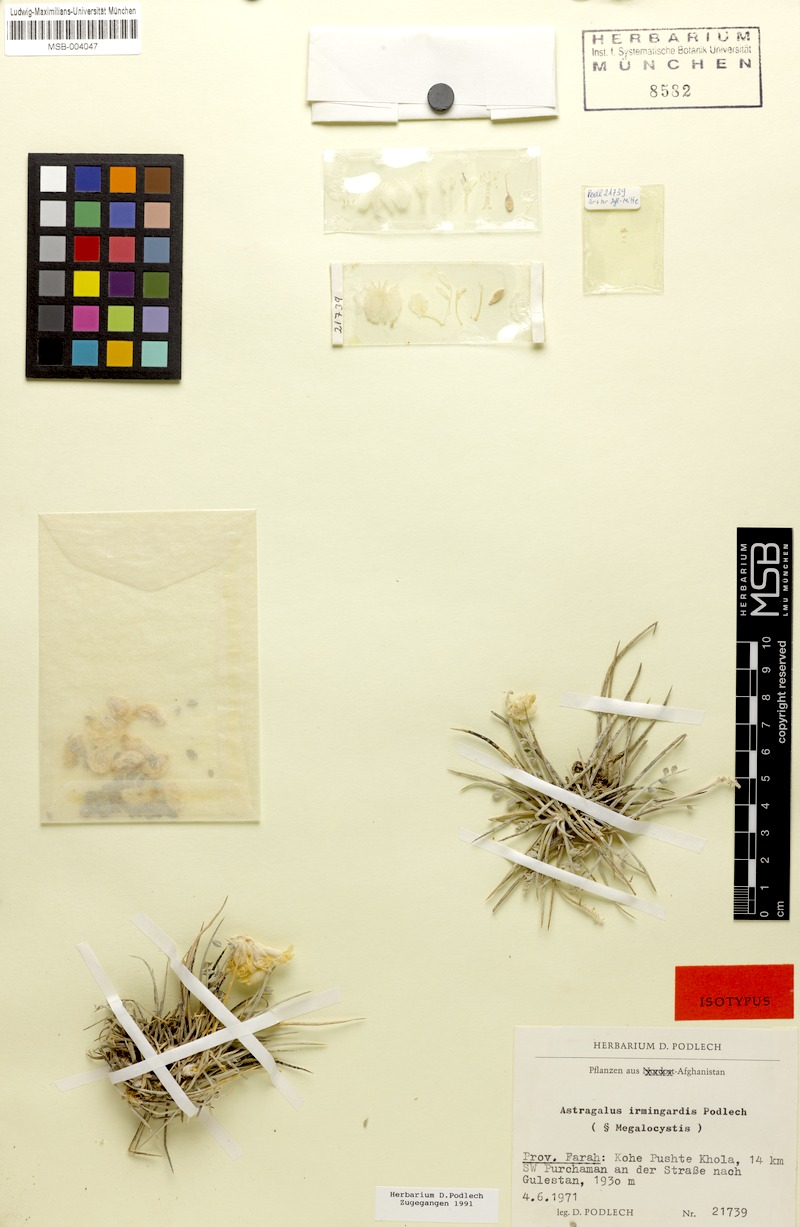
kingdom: Plantae
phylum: Tracheophyta
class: Magnoliopsida
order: Fabales
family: Fabaceae
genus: Astragalus
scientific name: Astragalus keratensis
